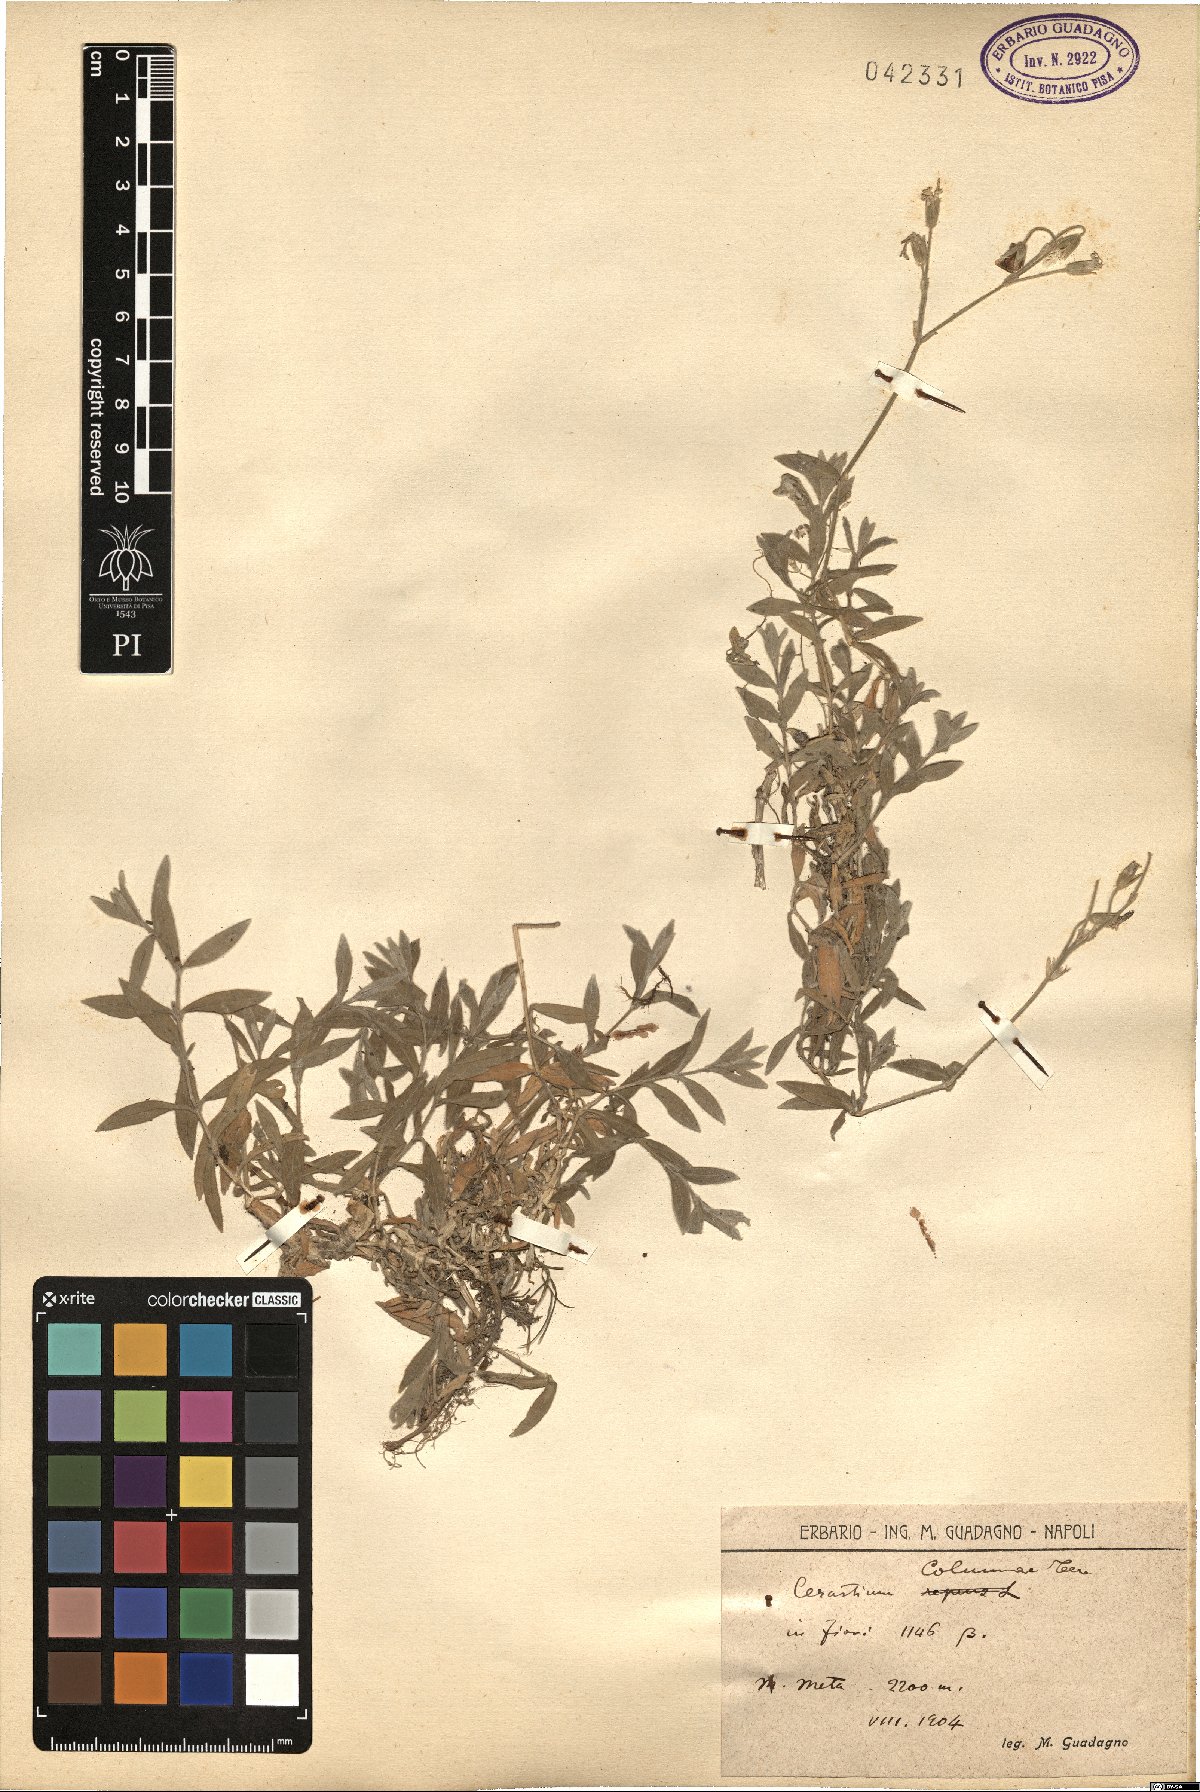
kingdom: Plantae
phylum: Tracheophyta
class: Magnoliopsida
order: Caryophyllales
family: Caryophyllaceae
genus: Cerastium
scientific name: Cerastium tomentosum
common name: Snow-in-summer
